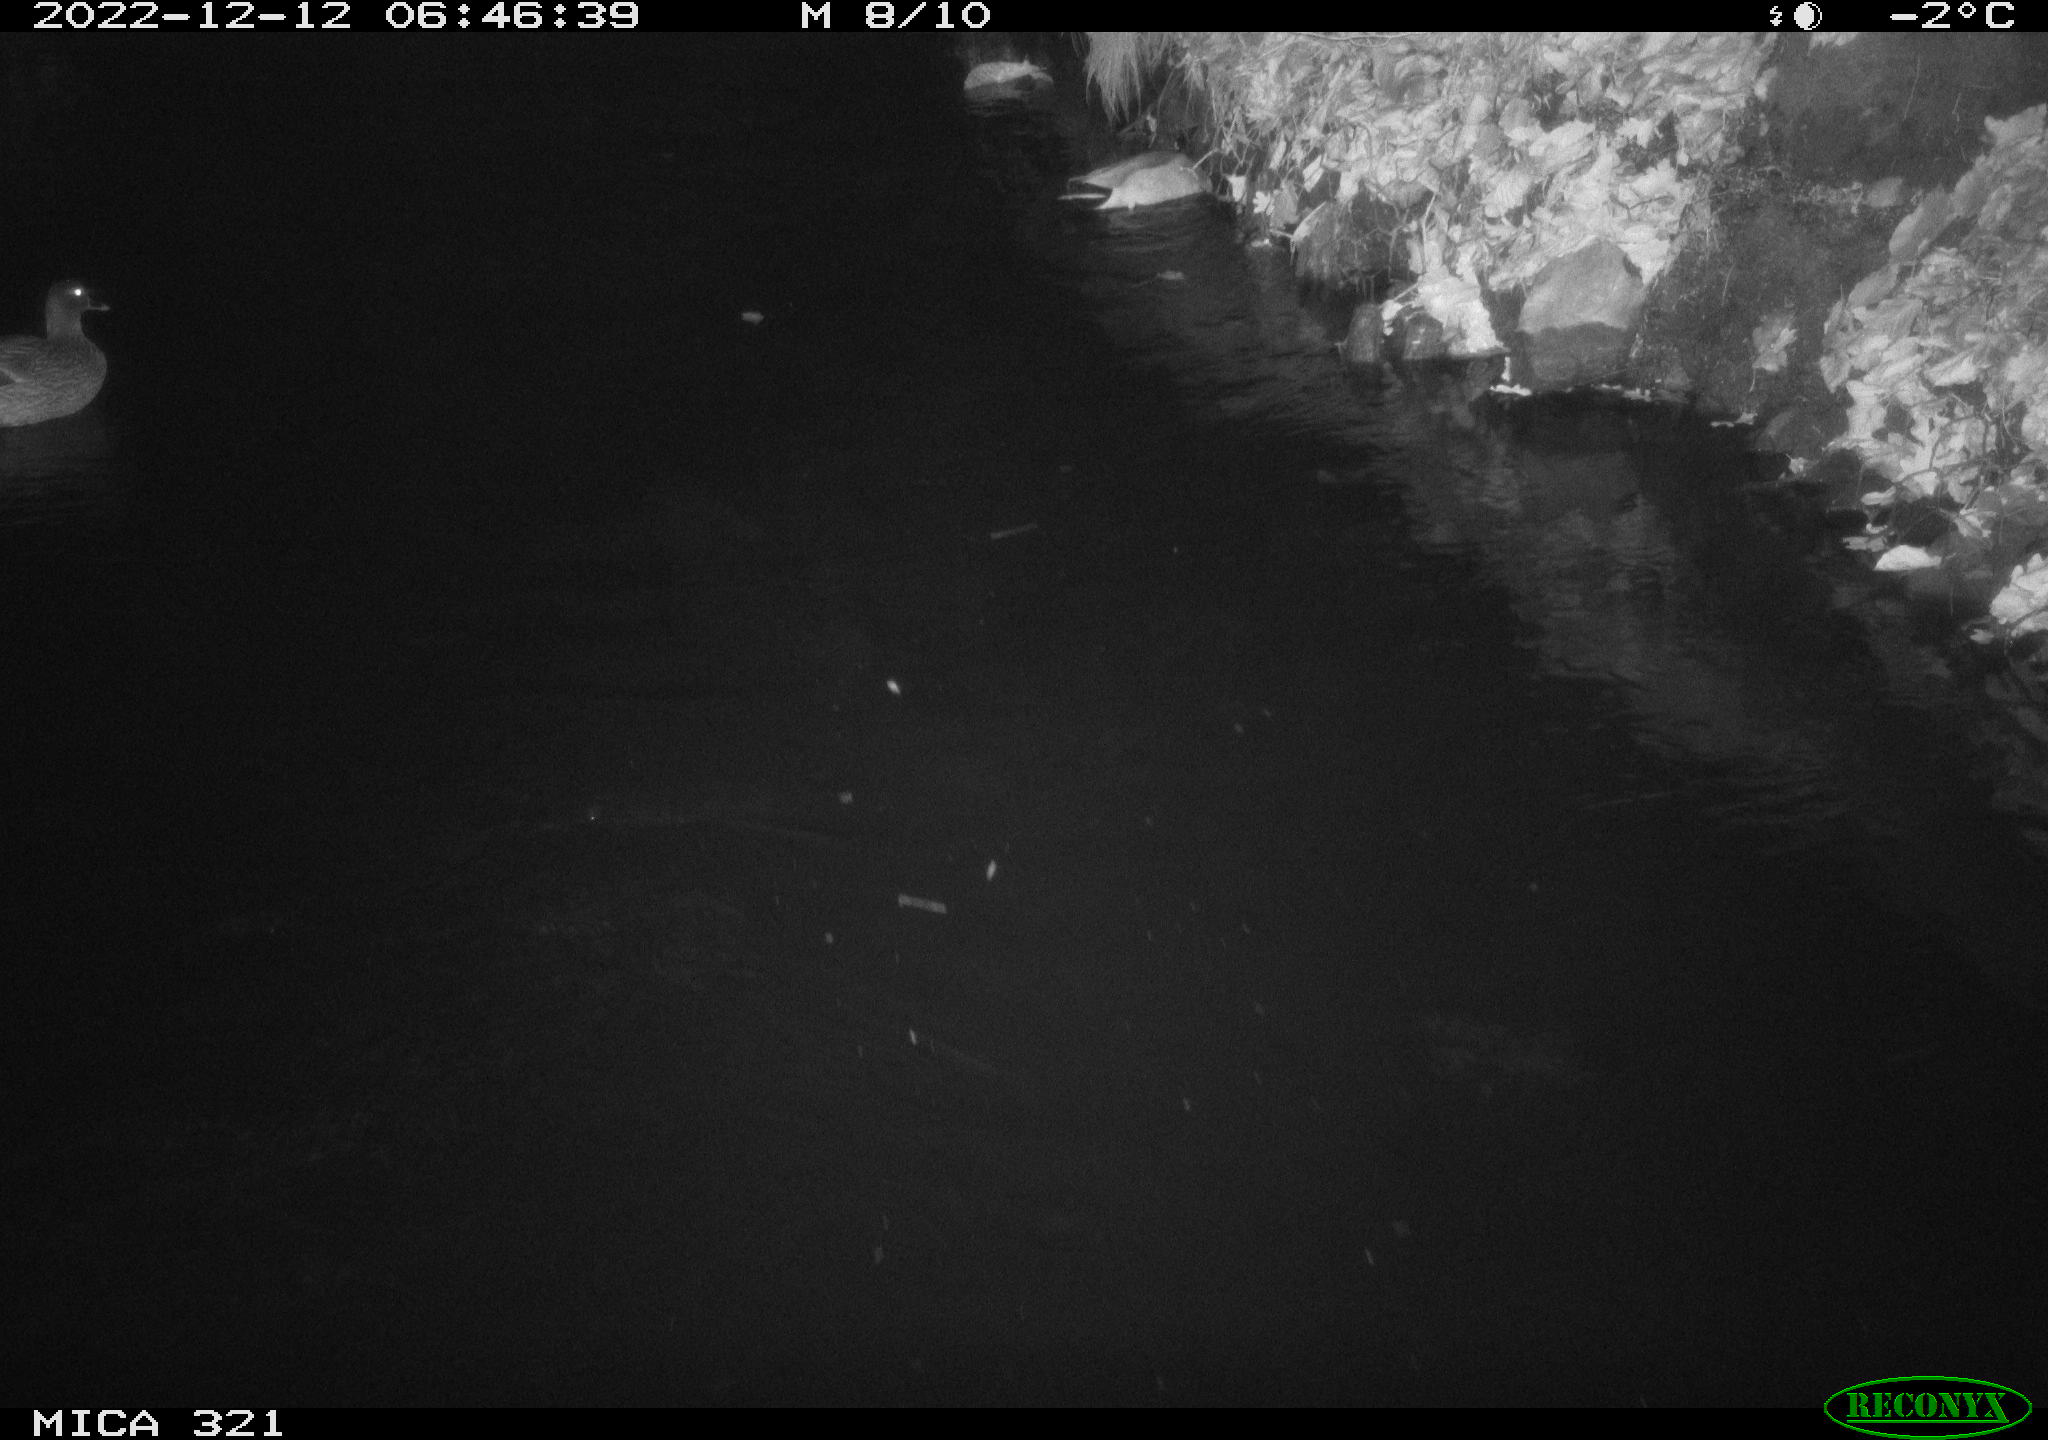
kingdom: Animalia
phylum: Chordata
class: Aves
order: Anseriformes
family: Anatidae
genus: Anas
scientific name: Anas
